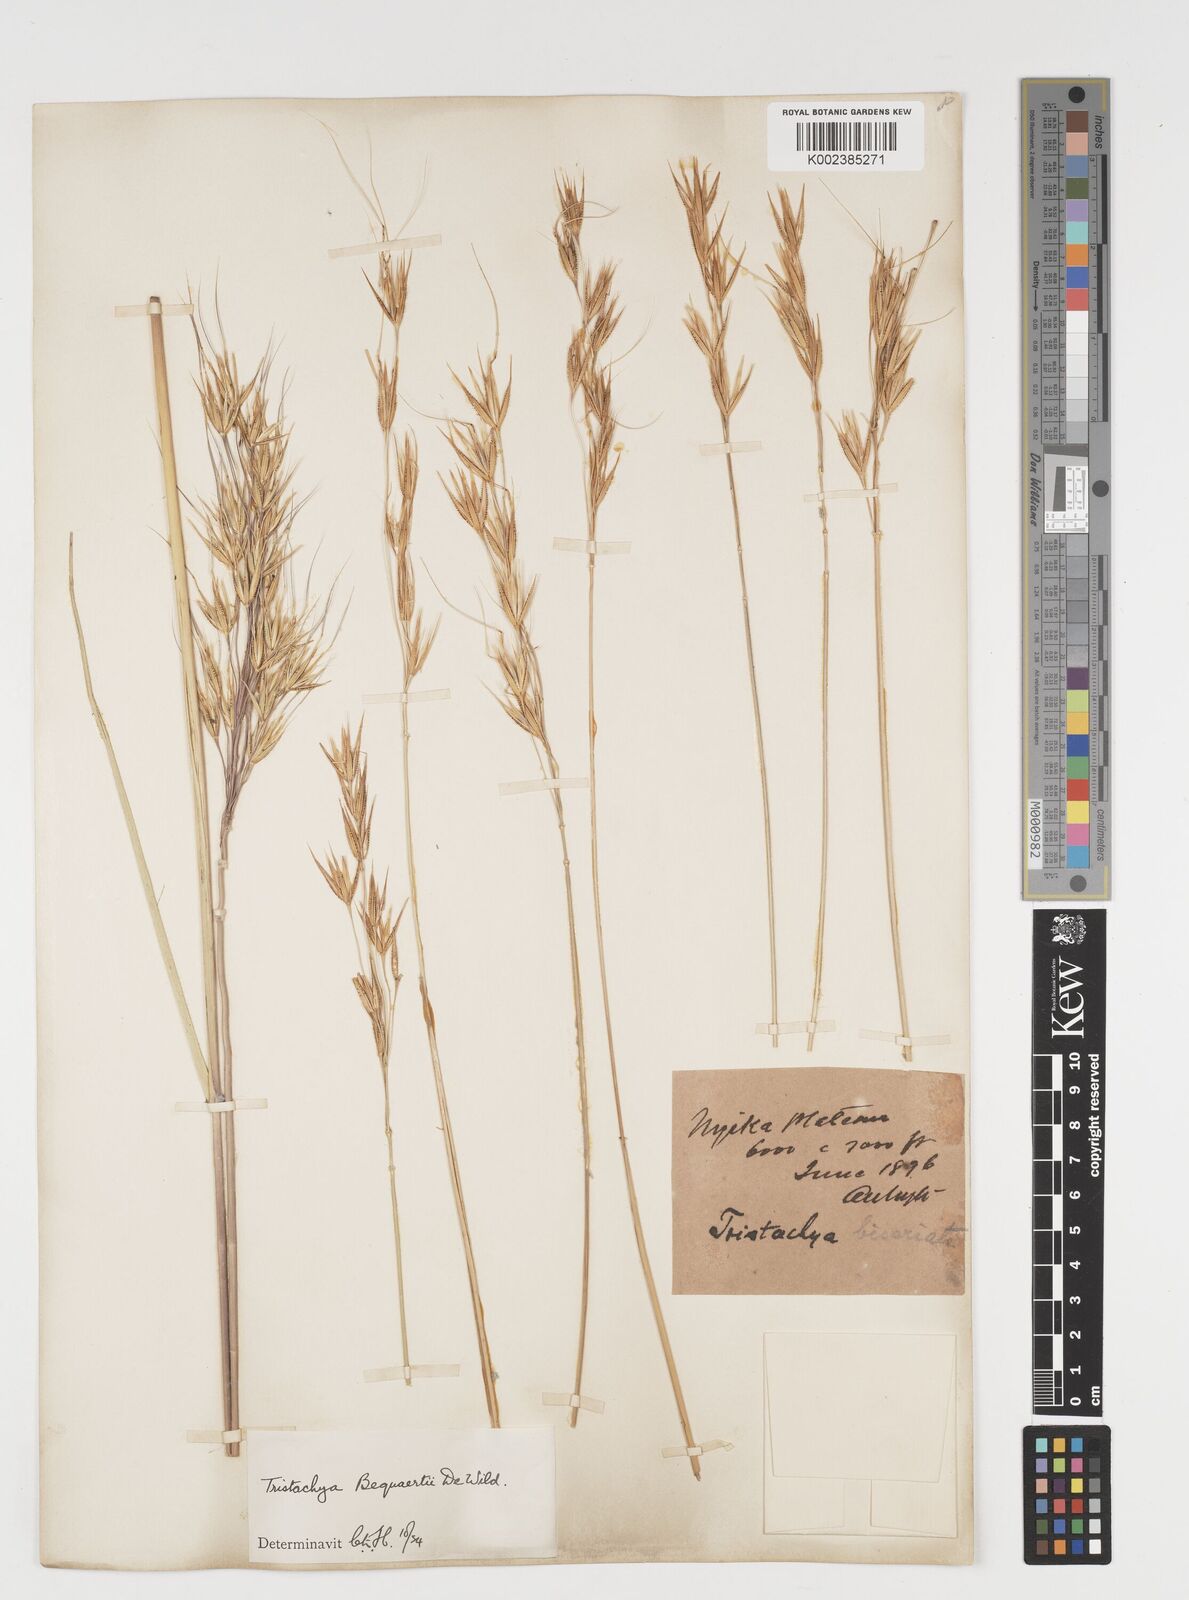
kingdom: Plantae
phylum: Tracheophyta
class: Liliopsida
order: Poales
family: Poaceae
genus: Tristachya
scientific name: Tristachya bequaertii
